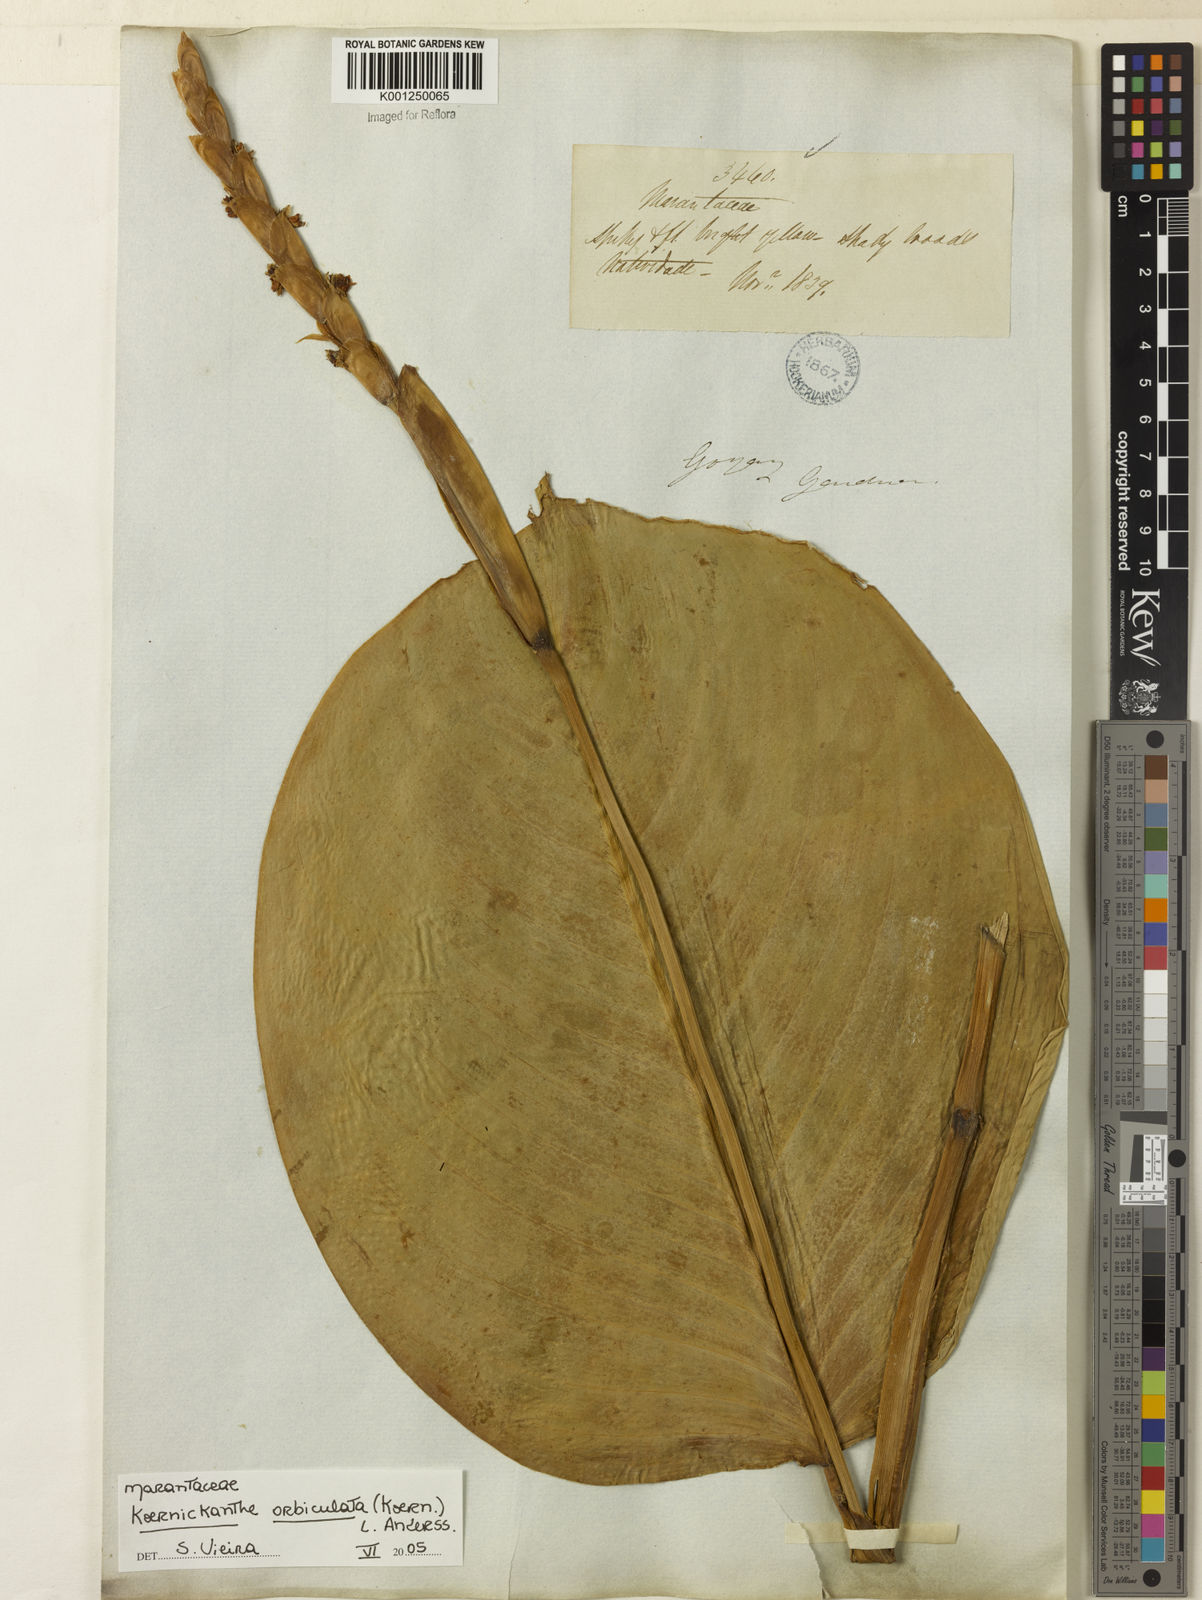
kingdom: Plantae
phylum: Tracheophyta
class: Liliopsida
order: Zingiberales
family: Marantaceae
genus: Koernickanthe
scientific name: Koernickanthe orbiculata
